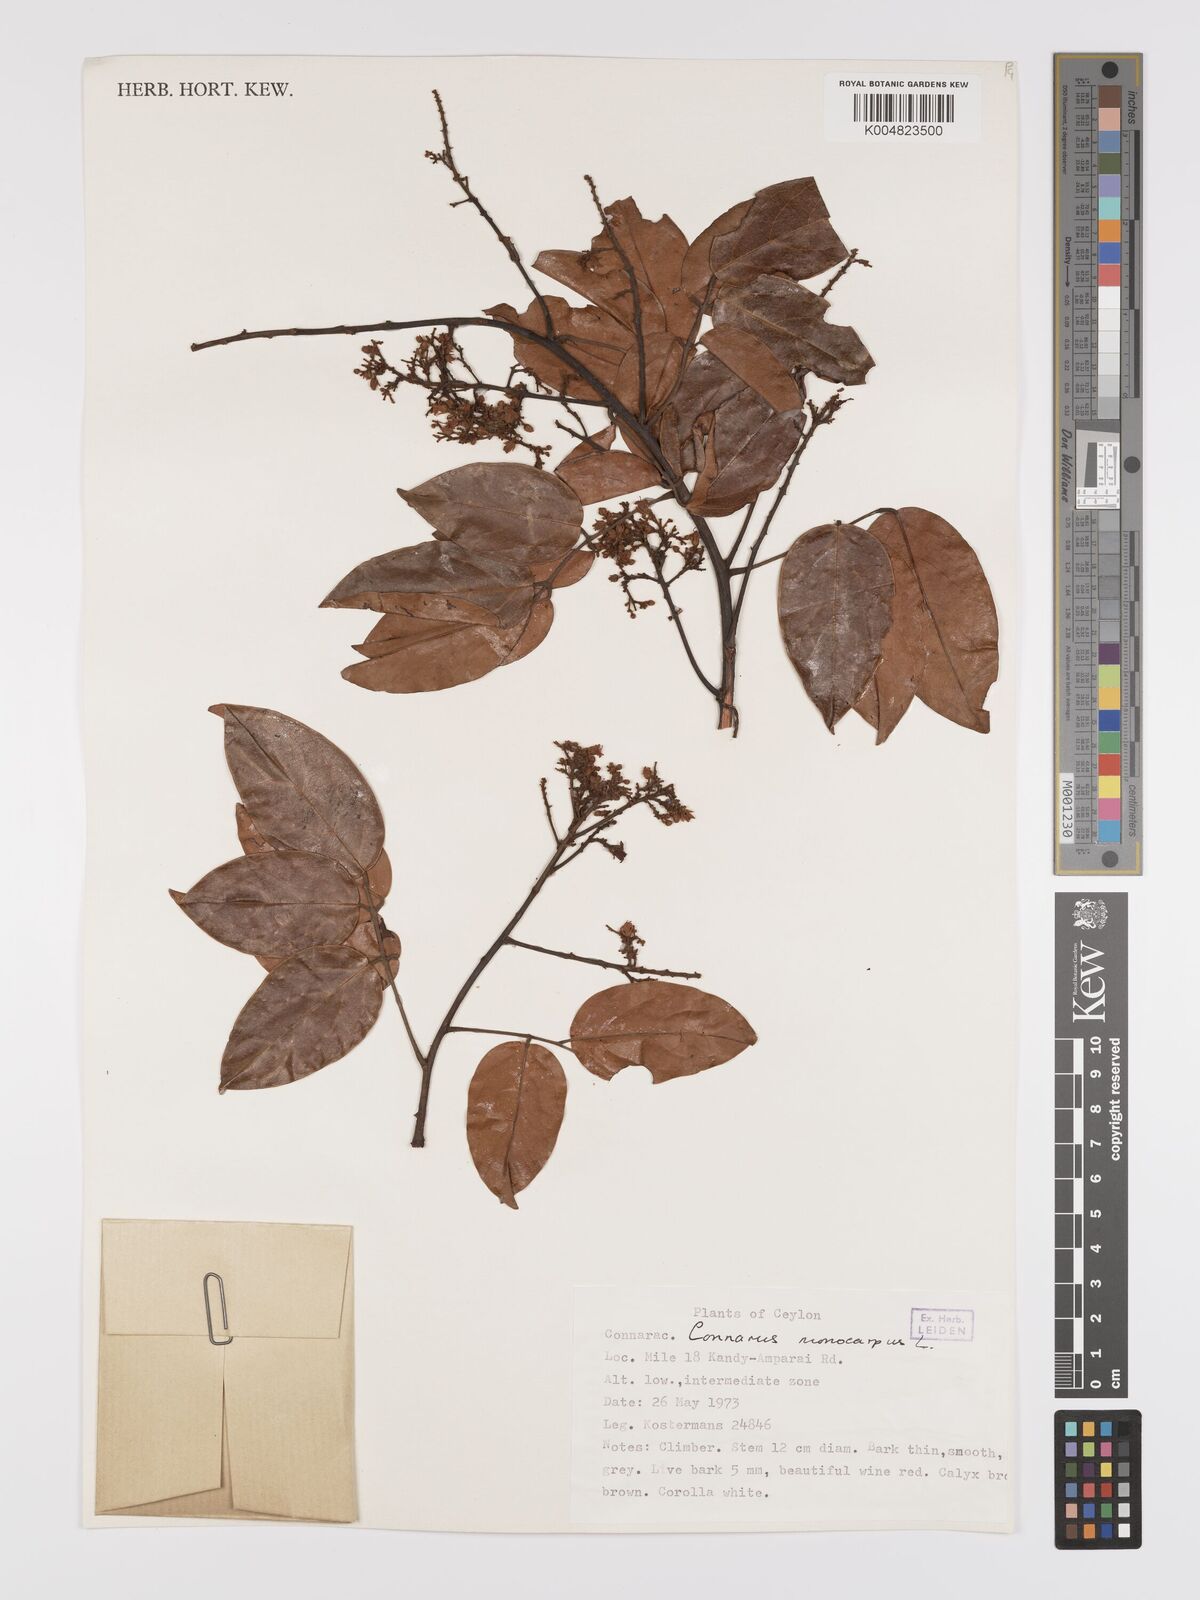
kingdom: Plantae
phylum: Tracheophyta
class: Magnoliopsida
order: Oxalidales
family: Connaraceae
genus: Connarus
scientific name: Connarus semidecandrus
